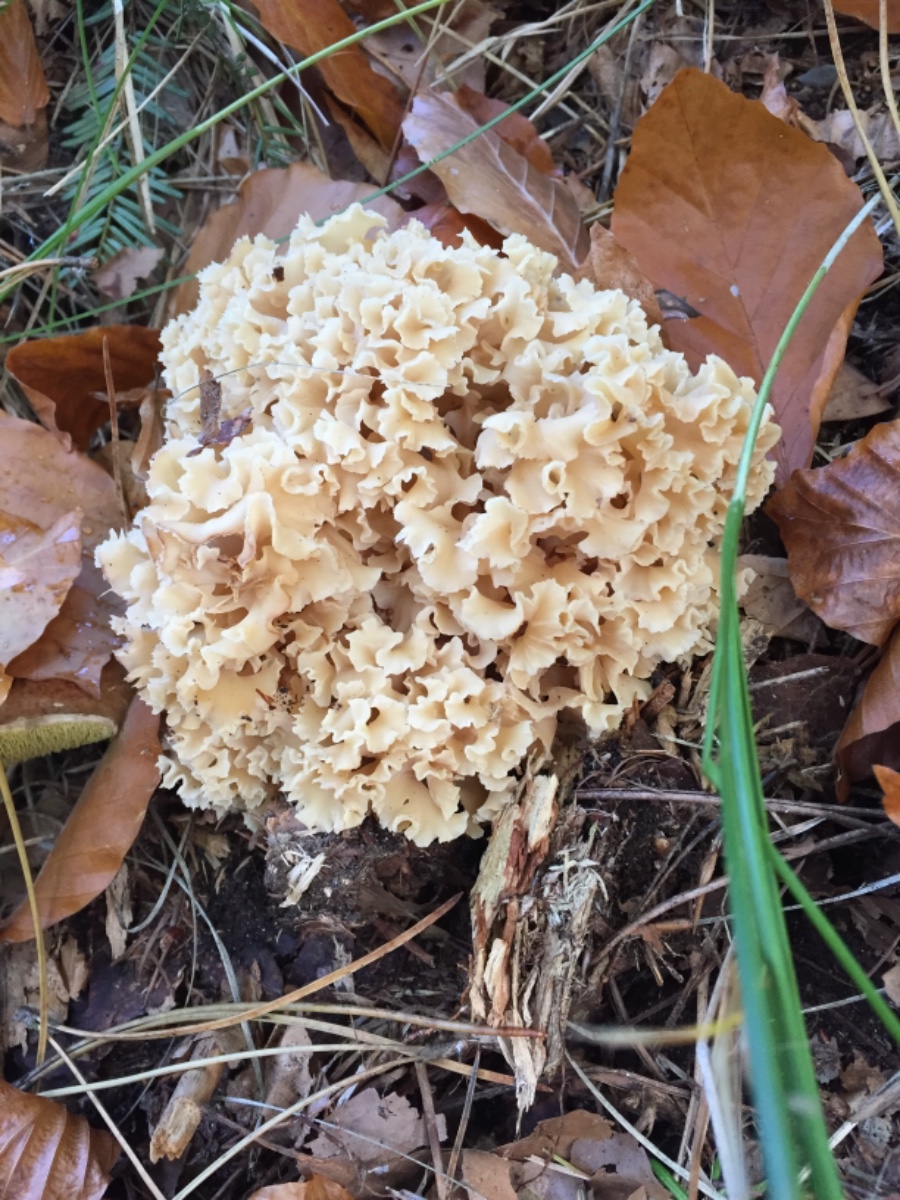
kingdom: Fungi
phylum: Basidiomycota
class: Agaricomycetes
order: Polyporales
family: Sparassidaceae
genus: Sparassis
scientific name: Sparassis crispa
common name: kruset blomkålssvamp
